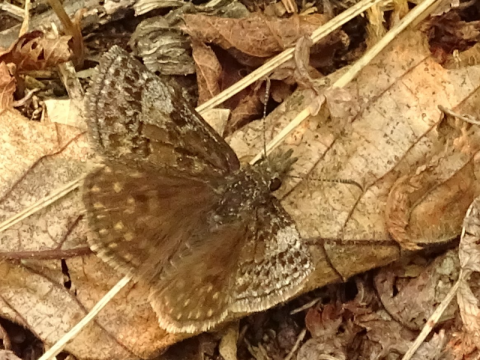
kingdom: Animalia
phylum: Arthropoda
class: Insecta
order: Lepidoptera
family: Hesperiidae
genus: Erynnis
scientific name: Erynnis icelus
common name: Dreamy Duskywing
